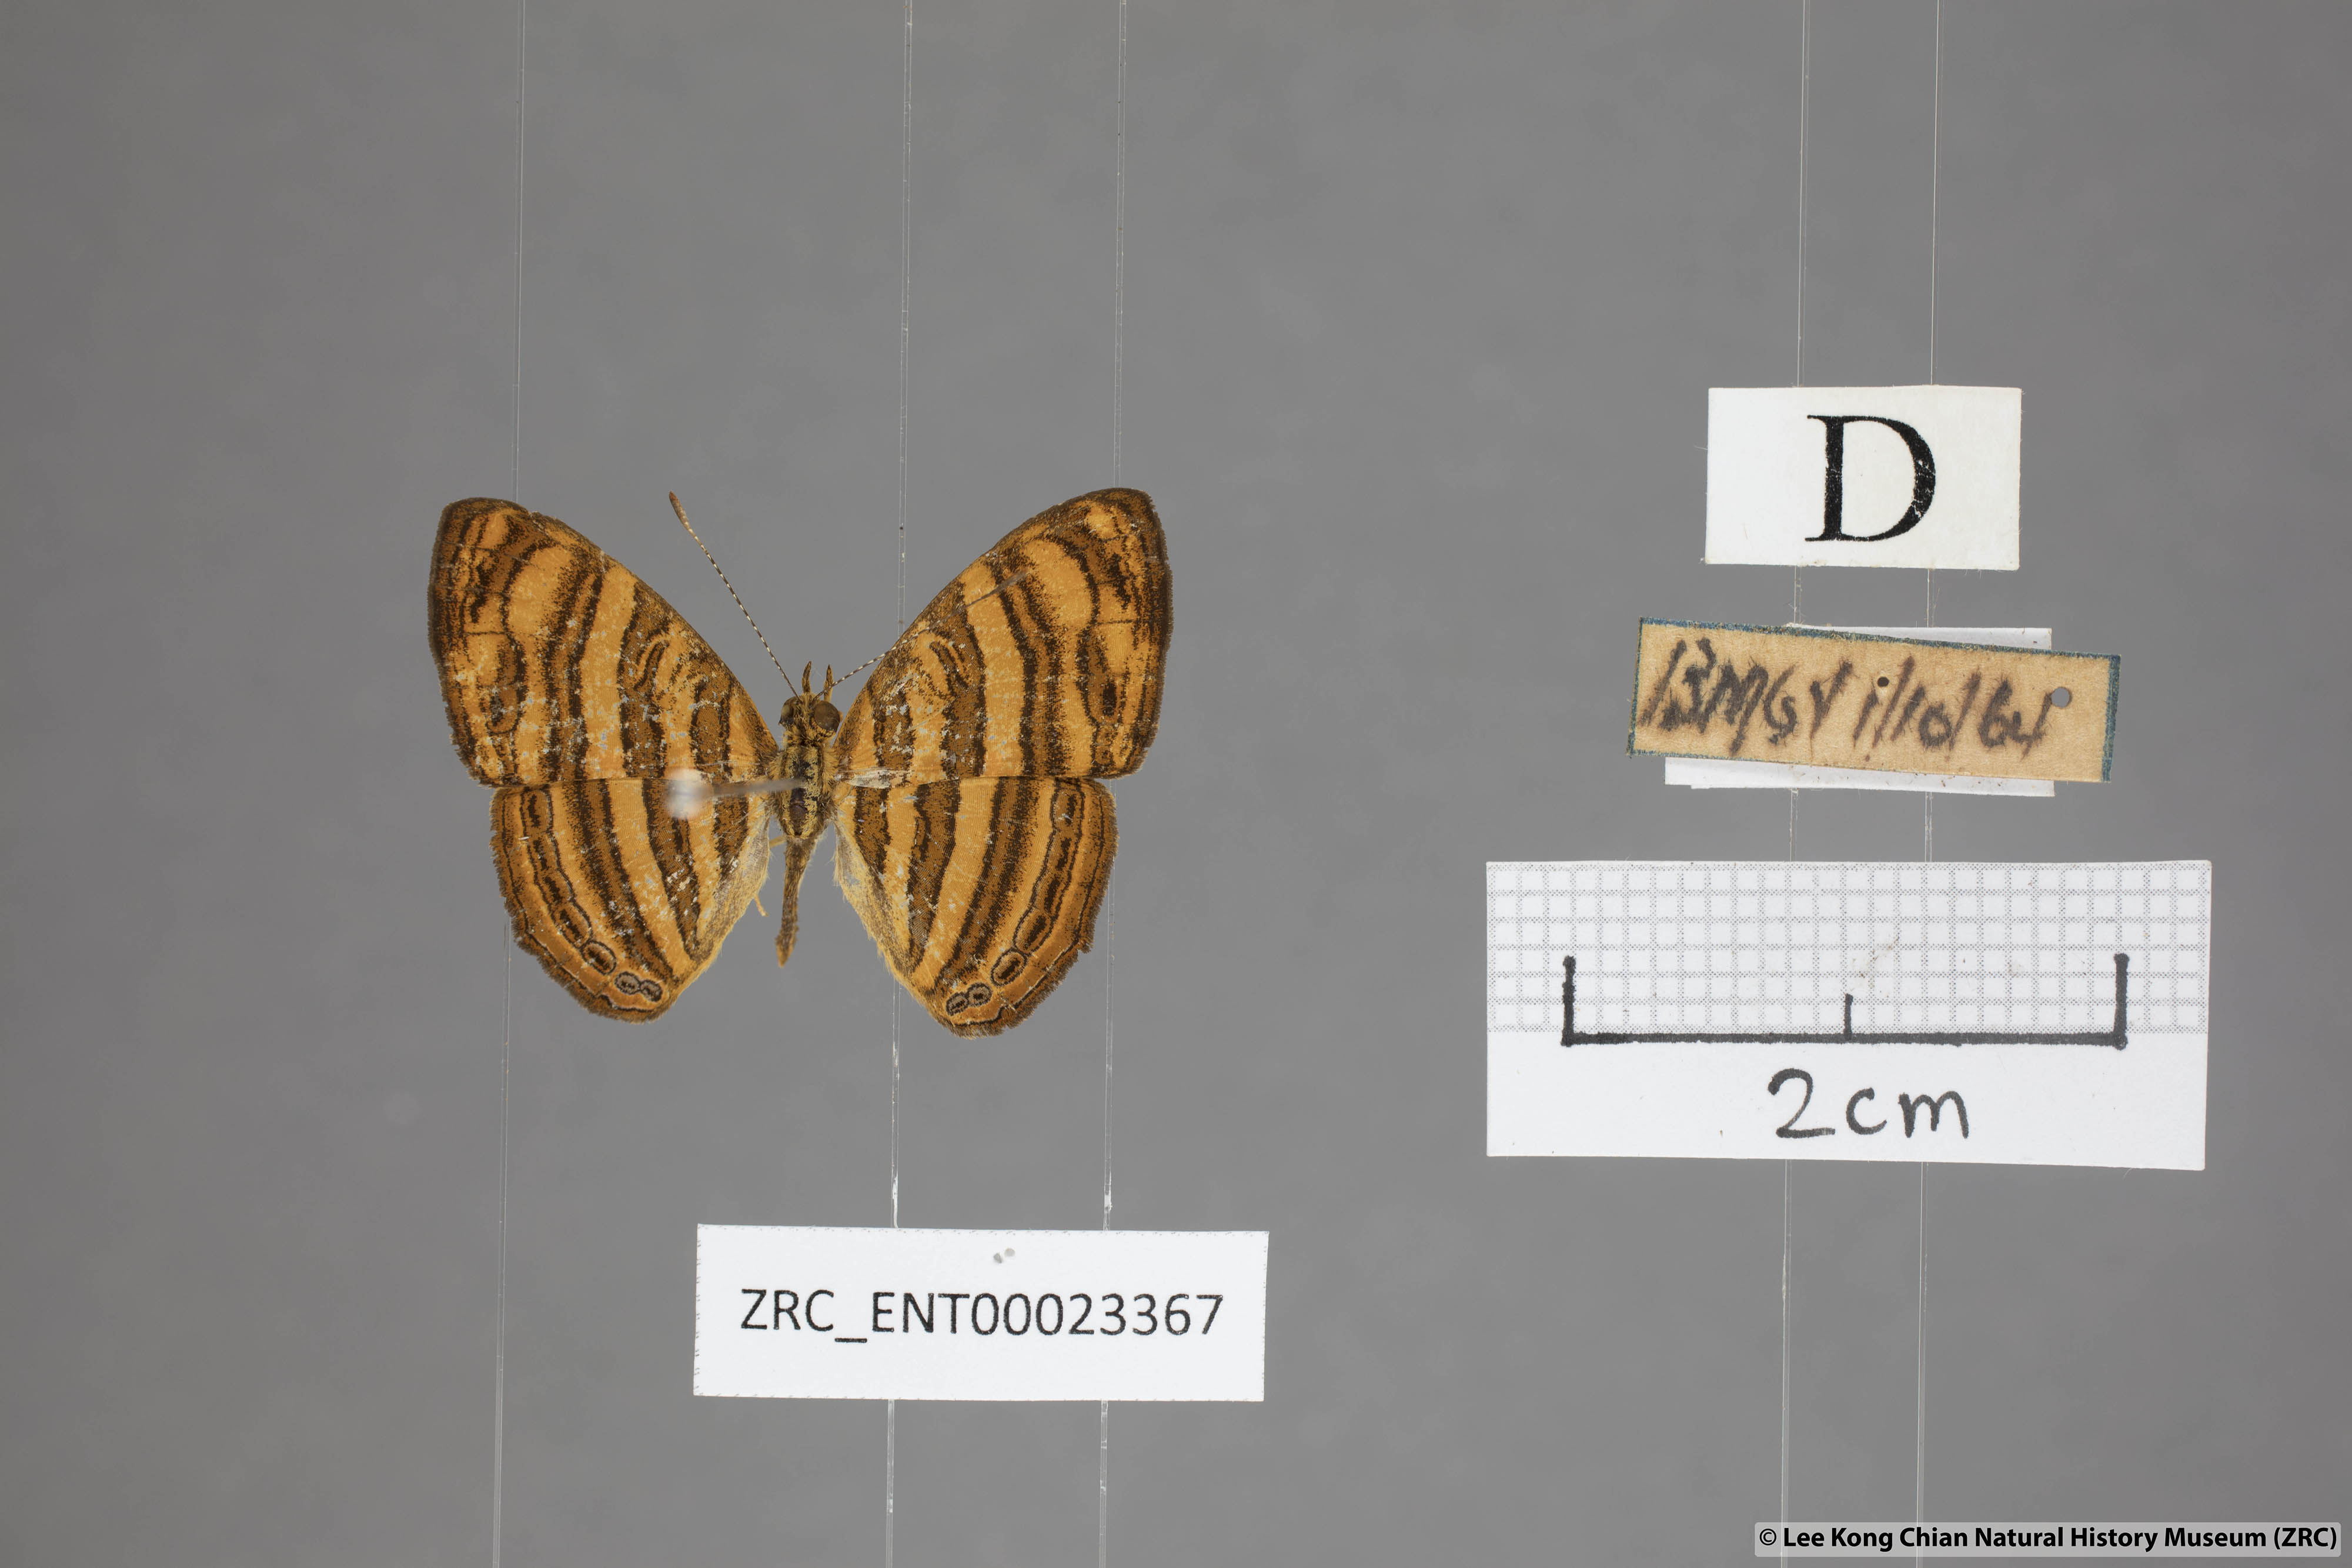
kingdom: Animalia
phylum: Arthropoda
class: Insecta
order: Lepidoptera
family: Nymphalidae
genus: Chersonesia
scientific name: Chersonesia peraka
